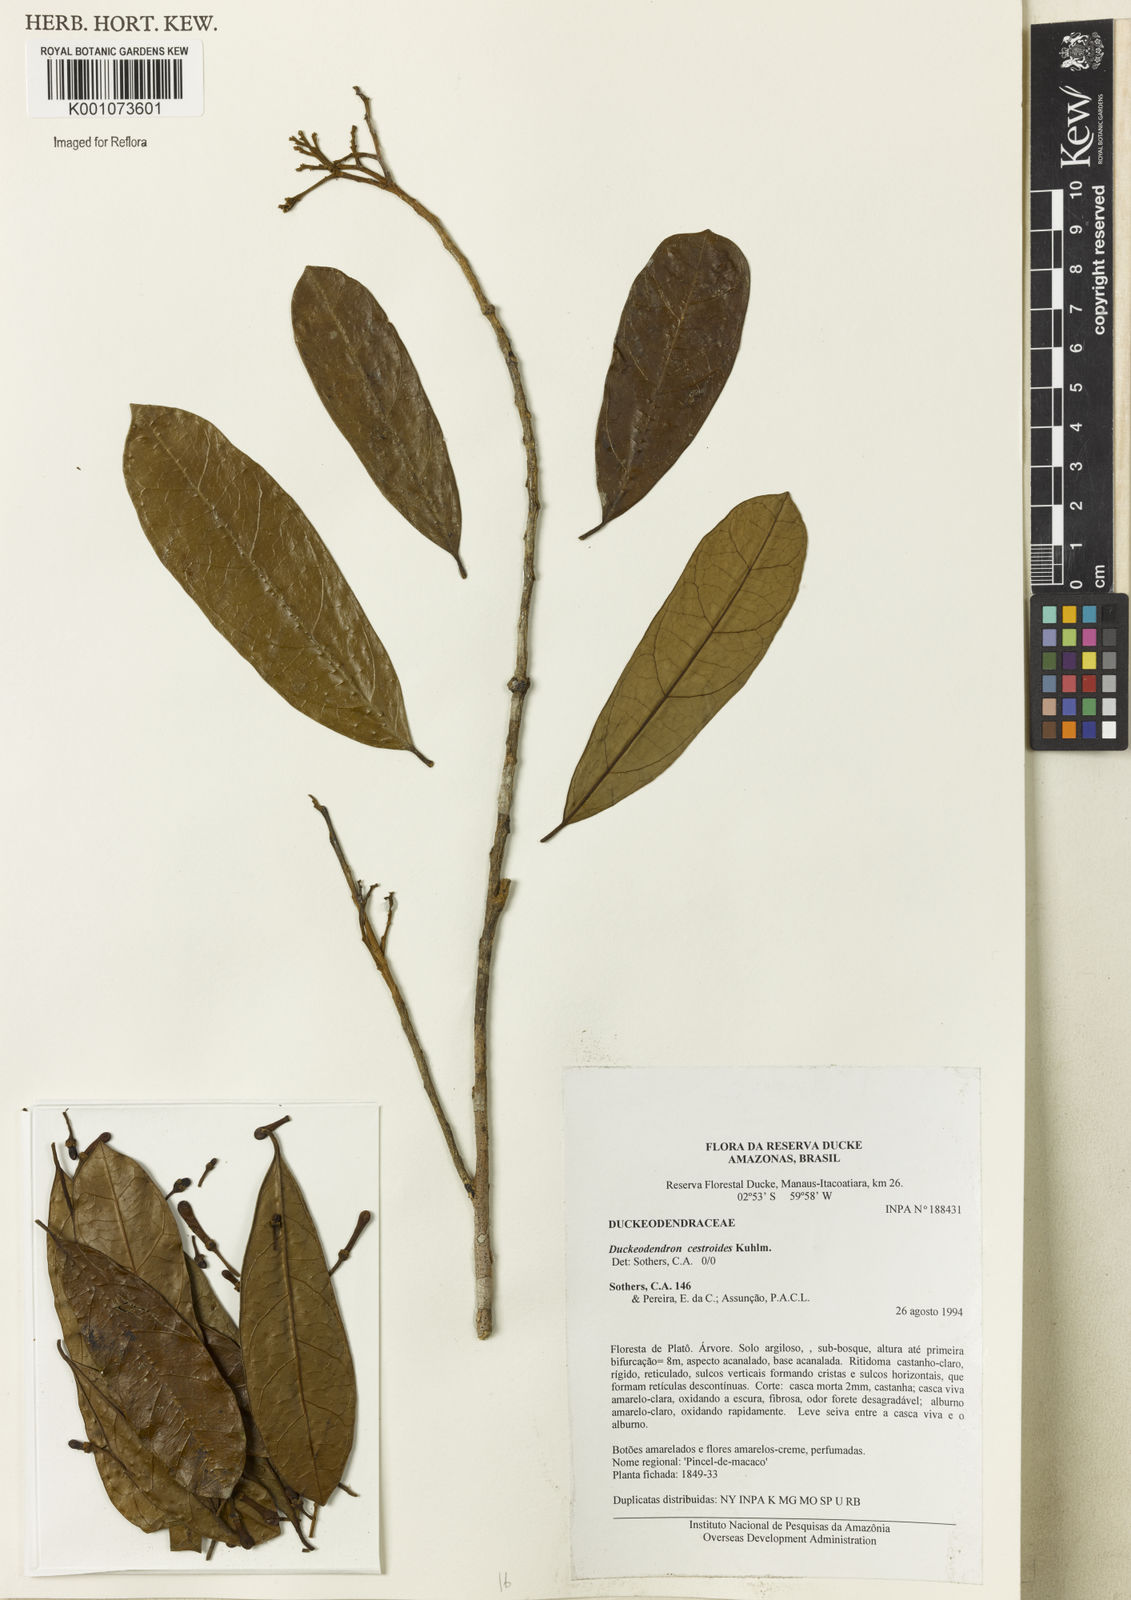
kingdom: Plantae
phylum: Tracheophyta
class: Magnoliopsida
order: Solanales
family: Solanaceae
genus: Duckeodendron
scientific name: Duckeodendron cestroides
